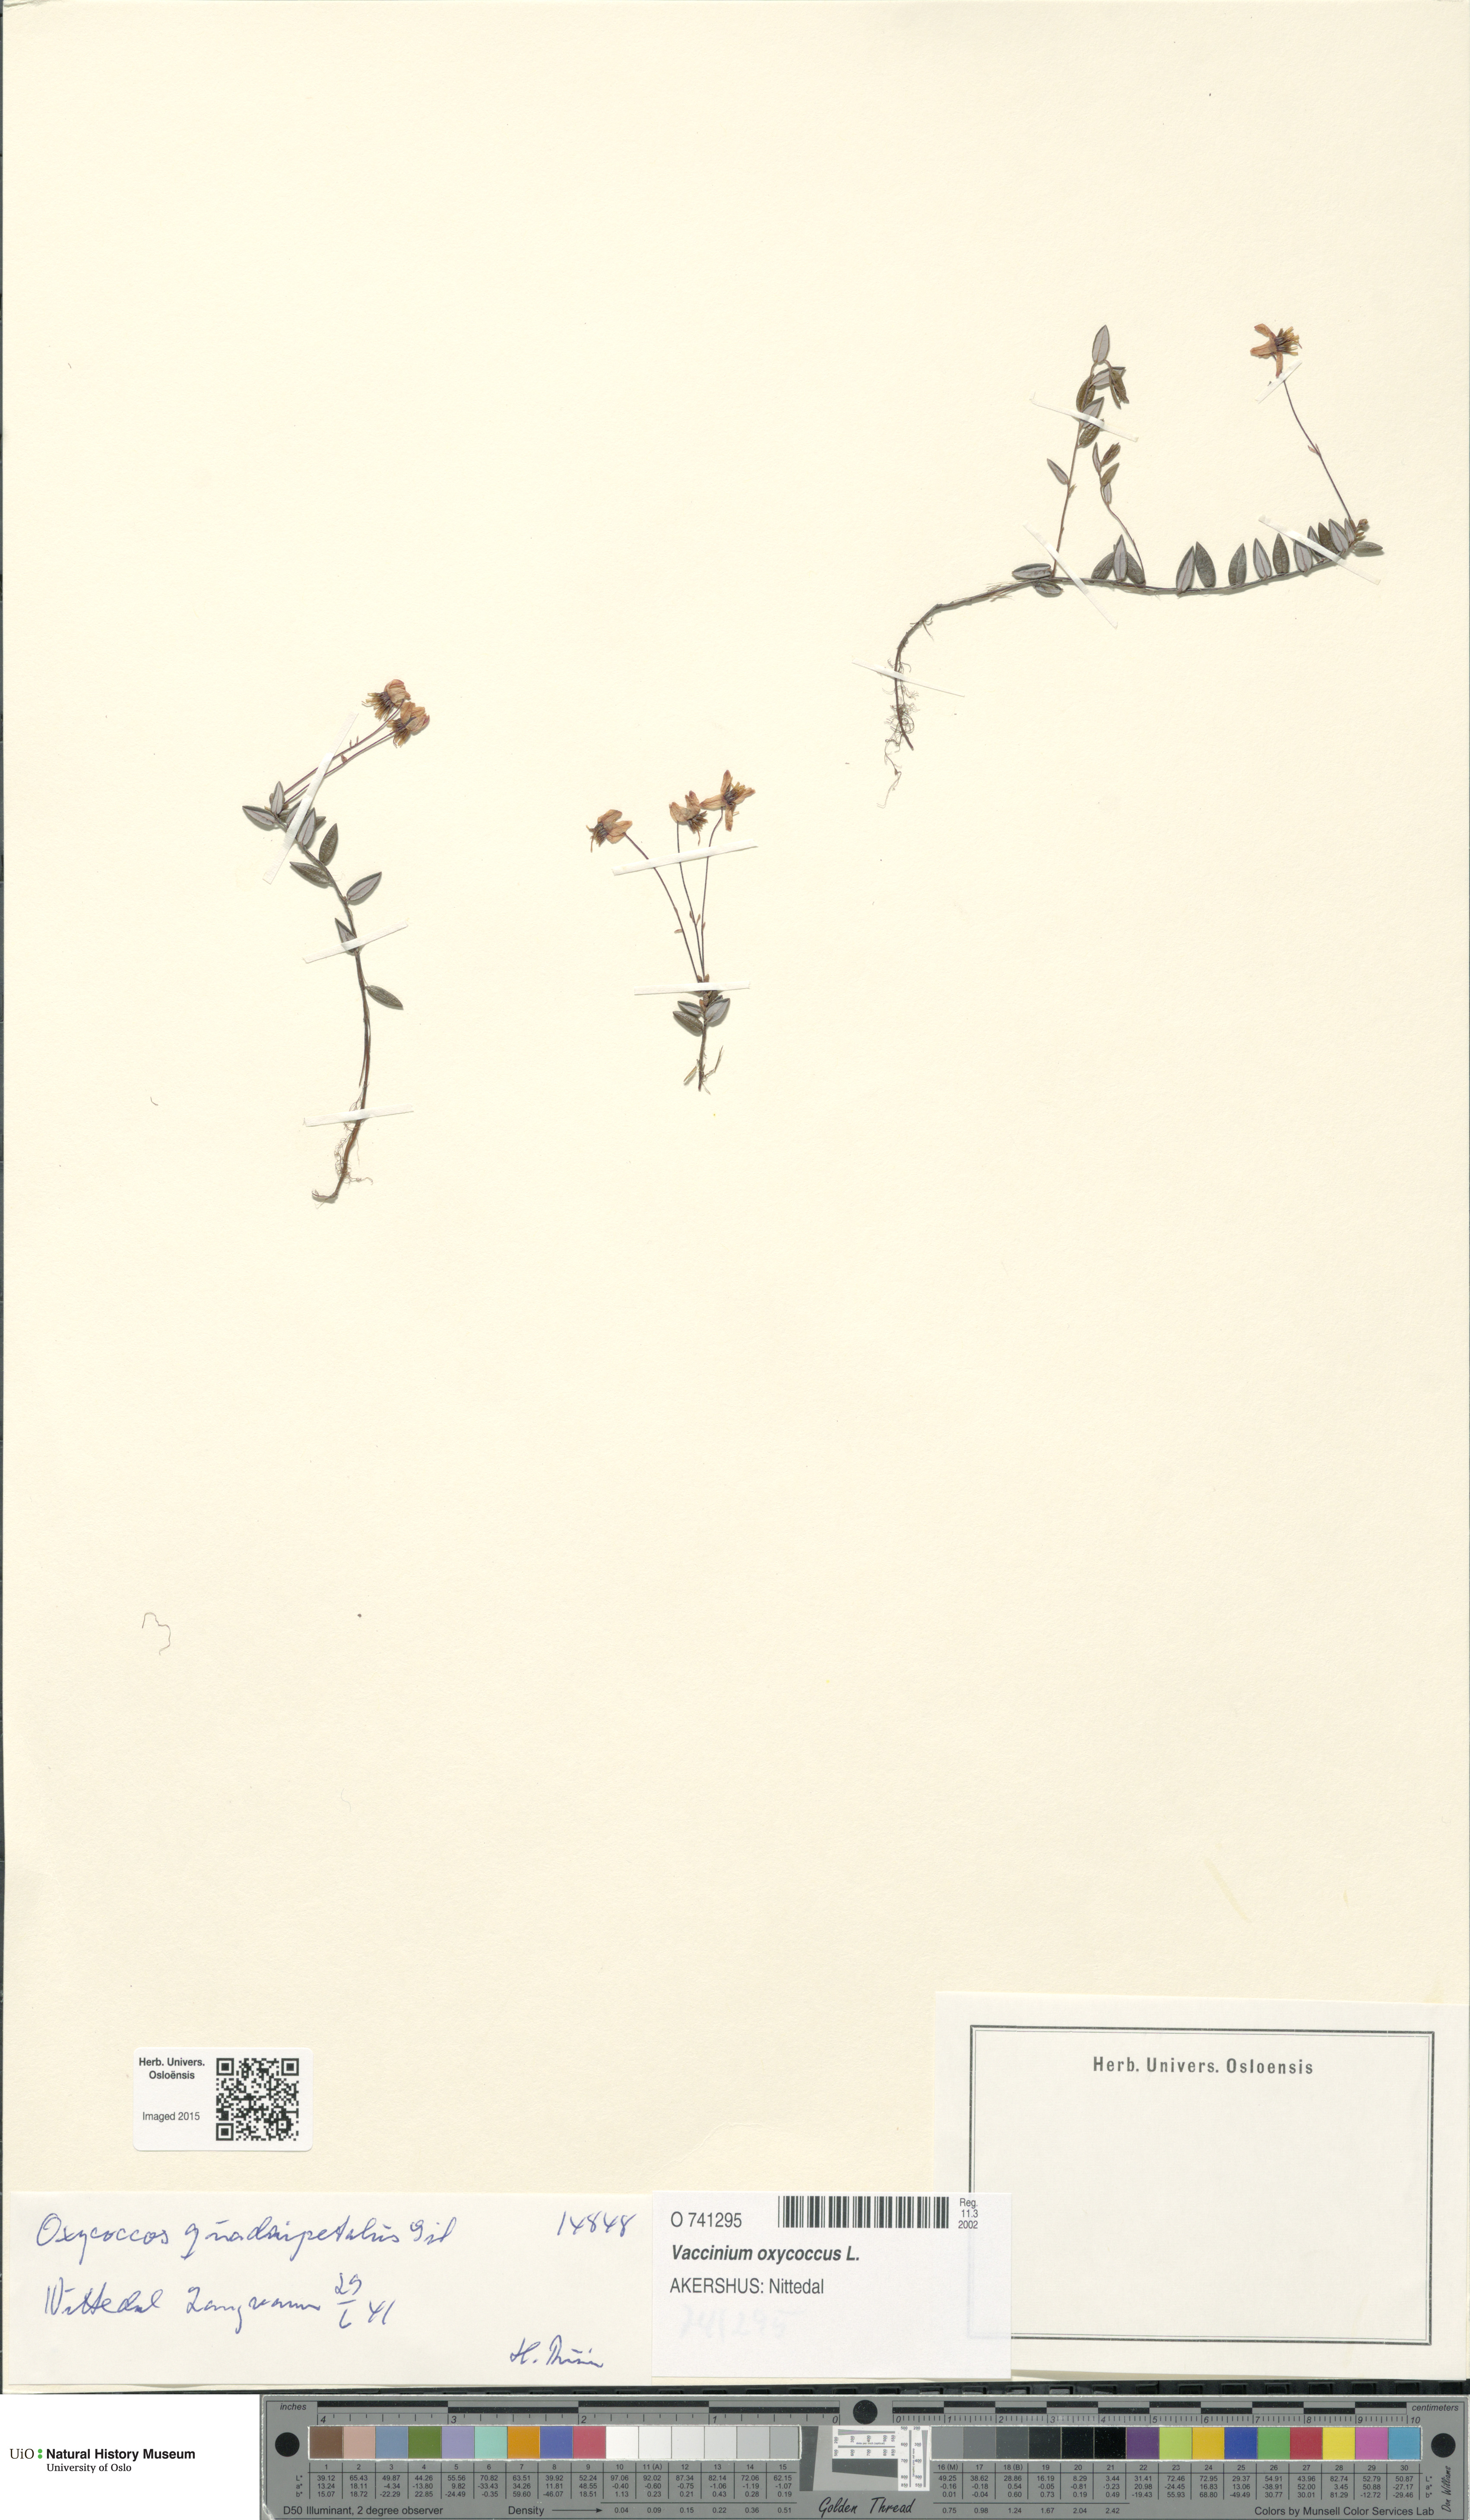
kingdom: Plantae
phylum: Tracheophyta
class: Magnoliopsida
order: Ericales
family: Ericaceae
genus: Vaccinium
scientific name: Vaccinium oxycoccos
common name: Cranberry
